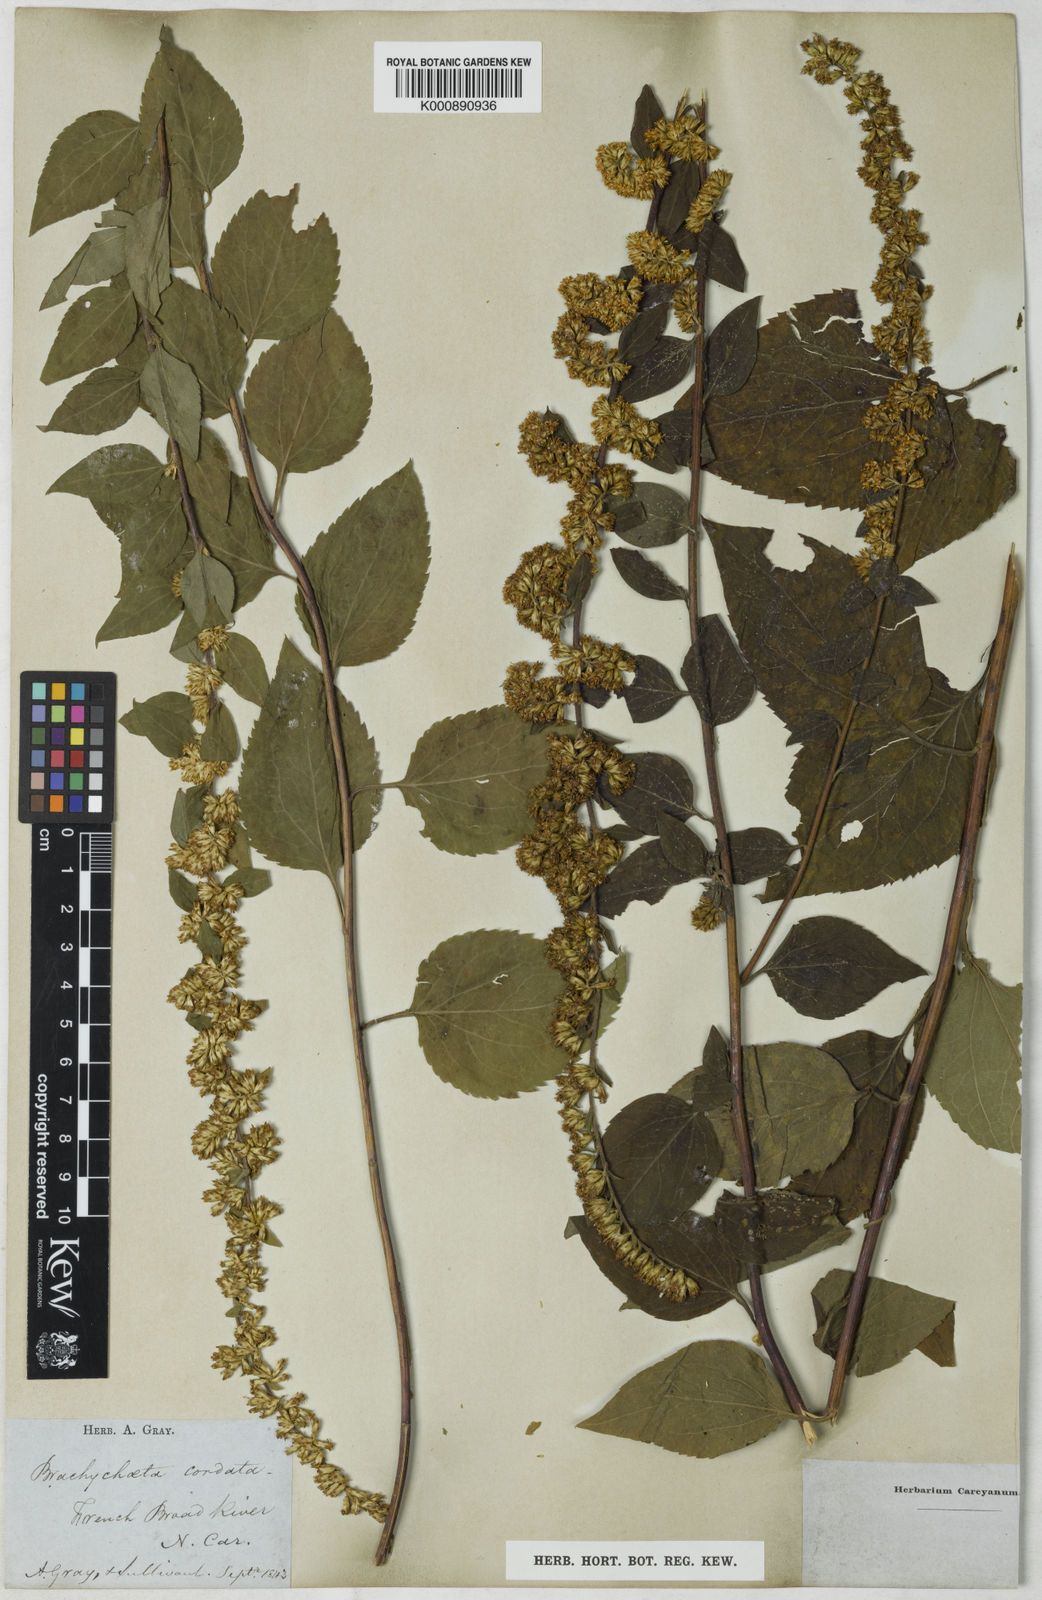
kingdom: Plantae
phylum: Tracheophyta
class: Magnoliopsida
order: Asterales
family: Asteraceae
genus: Solidago
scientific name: Solidago sphacelata
